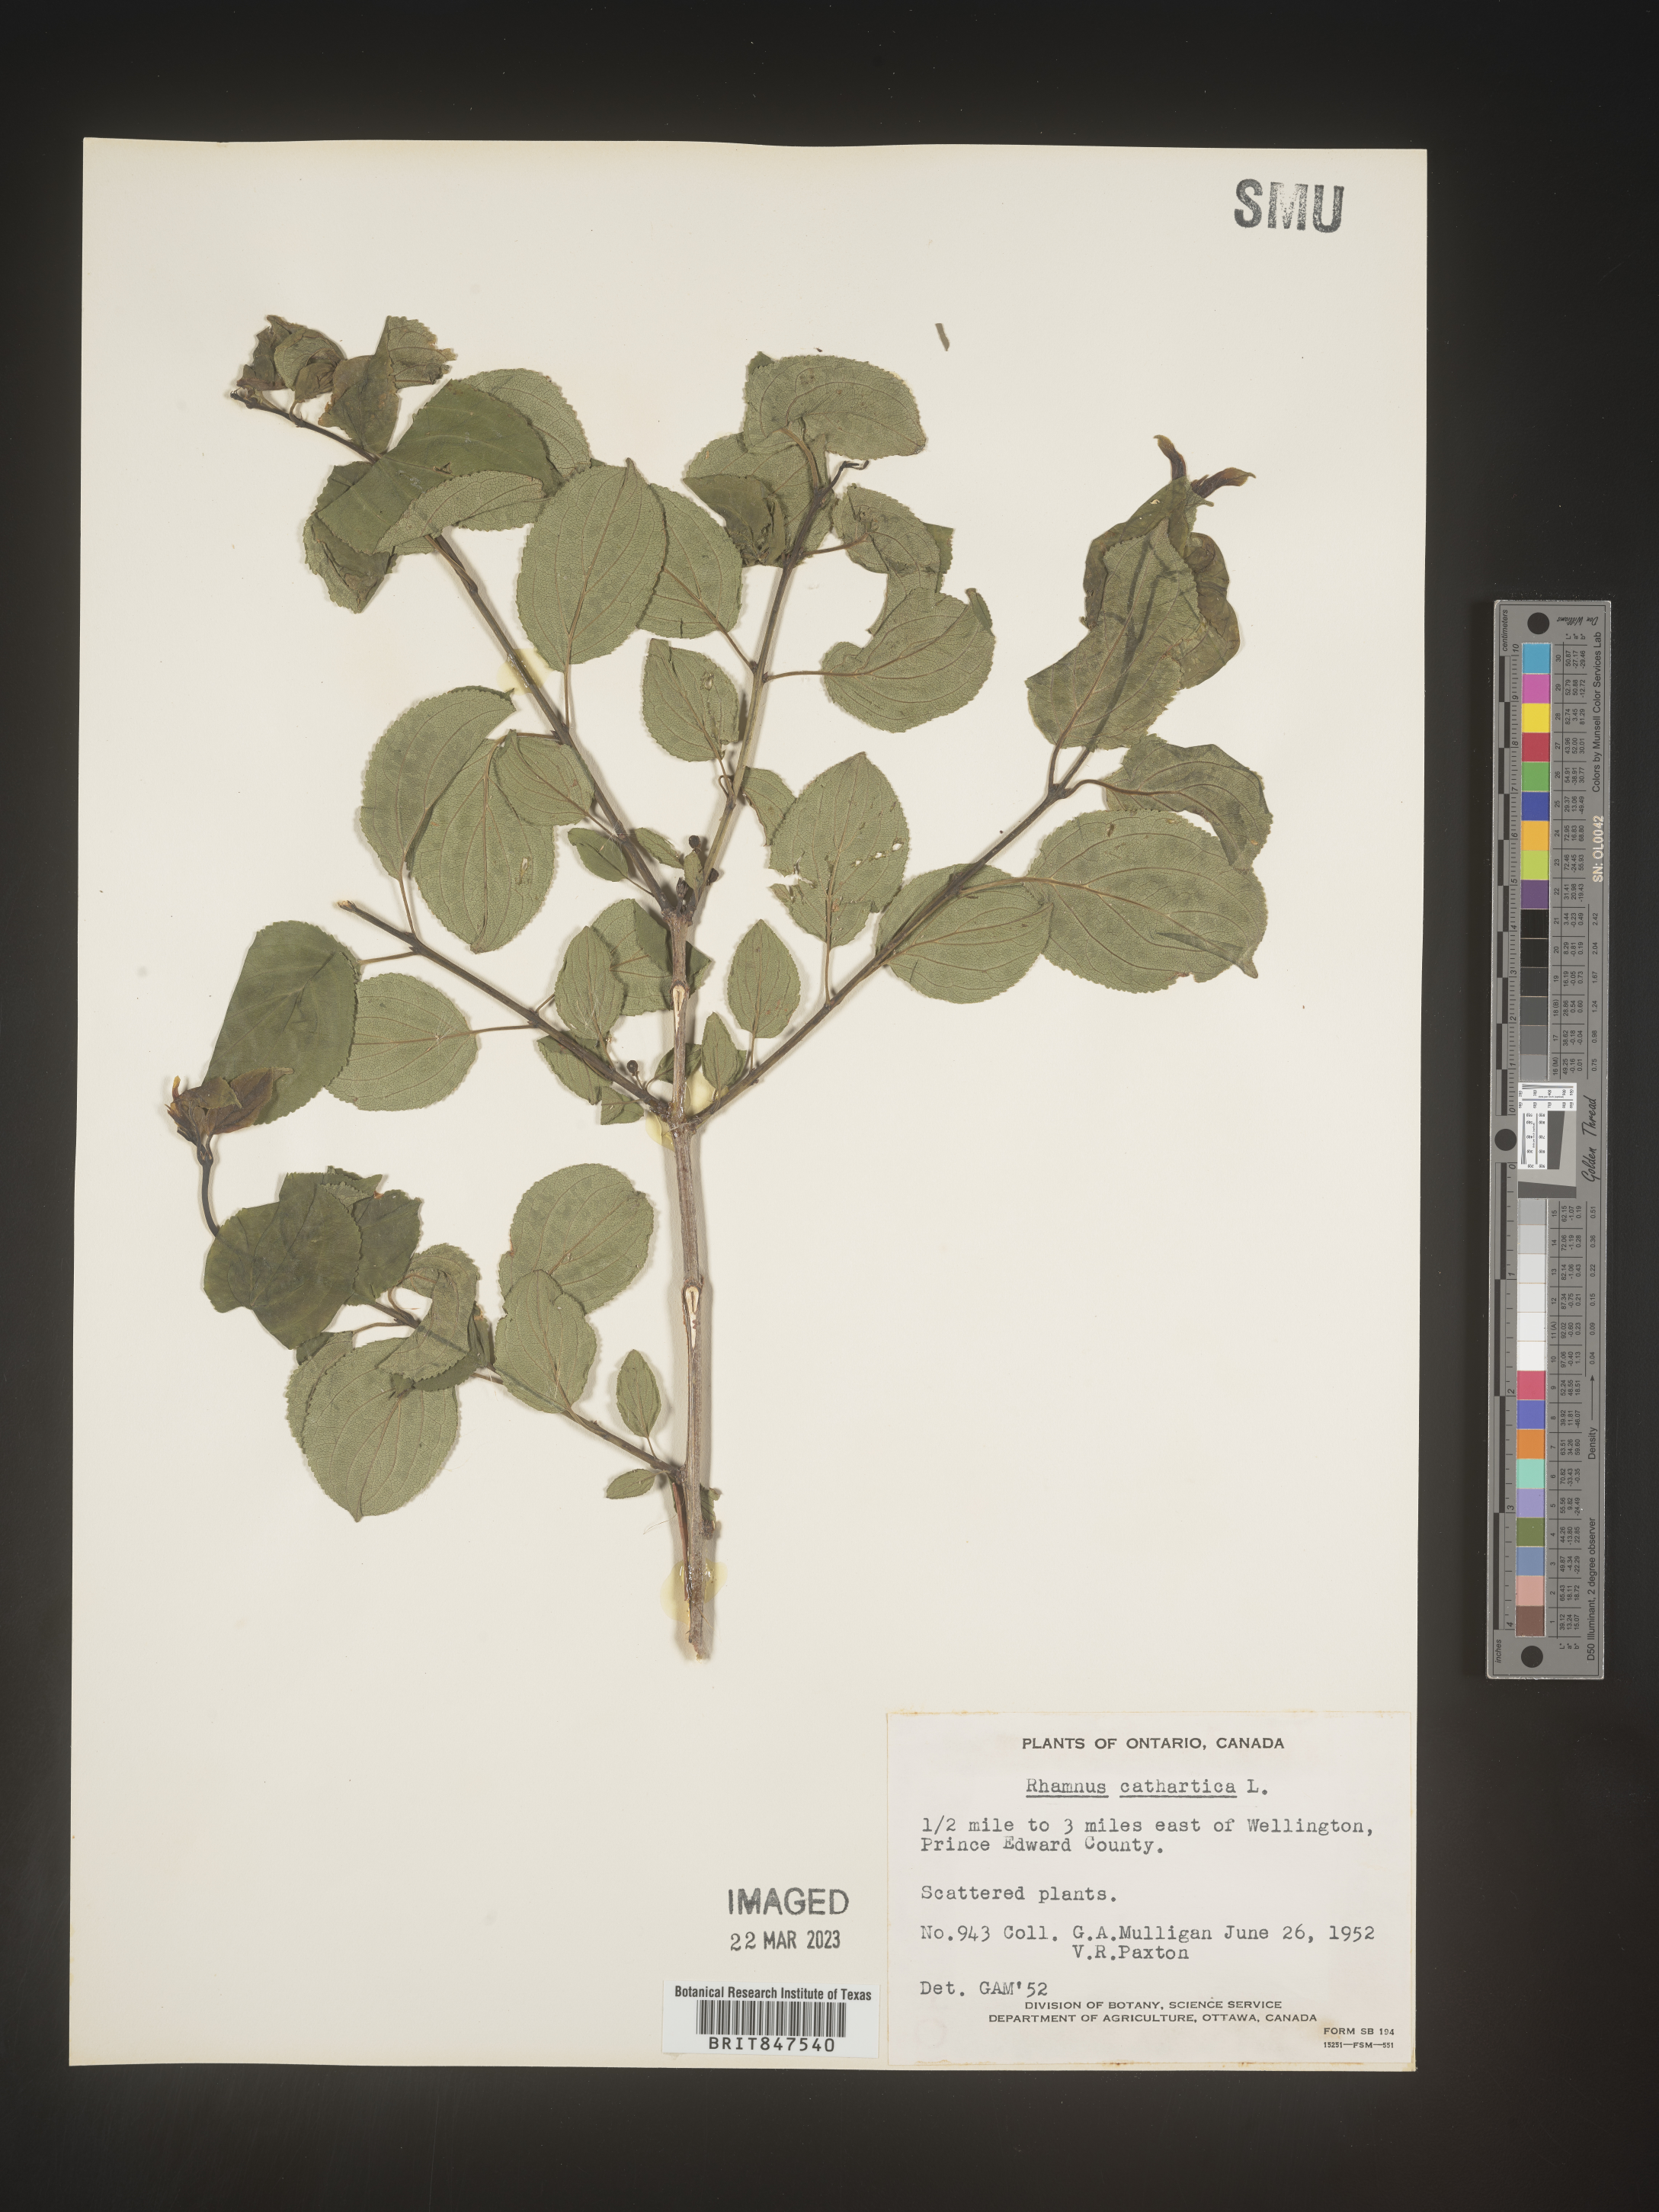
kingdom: Plantae
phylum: Tracheophyta
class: Magnoliopsida
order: Rosales
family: Rhamnaceae
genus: Rhamnus
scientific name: Rhamnus cathartica
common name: Common buckthorn
